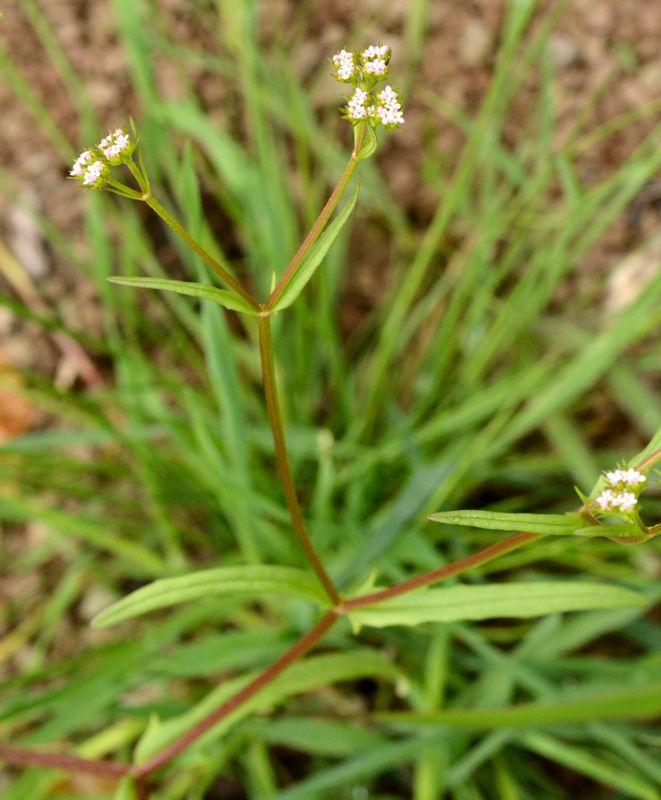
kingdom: Plantae
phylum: Tracheophyta
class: Magnoliopsida
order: Dipsacales
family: Caprifoliaceae
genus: Valerianella
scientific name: Valerianella
